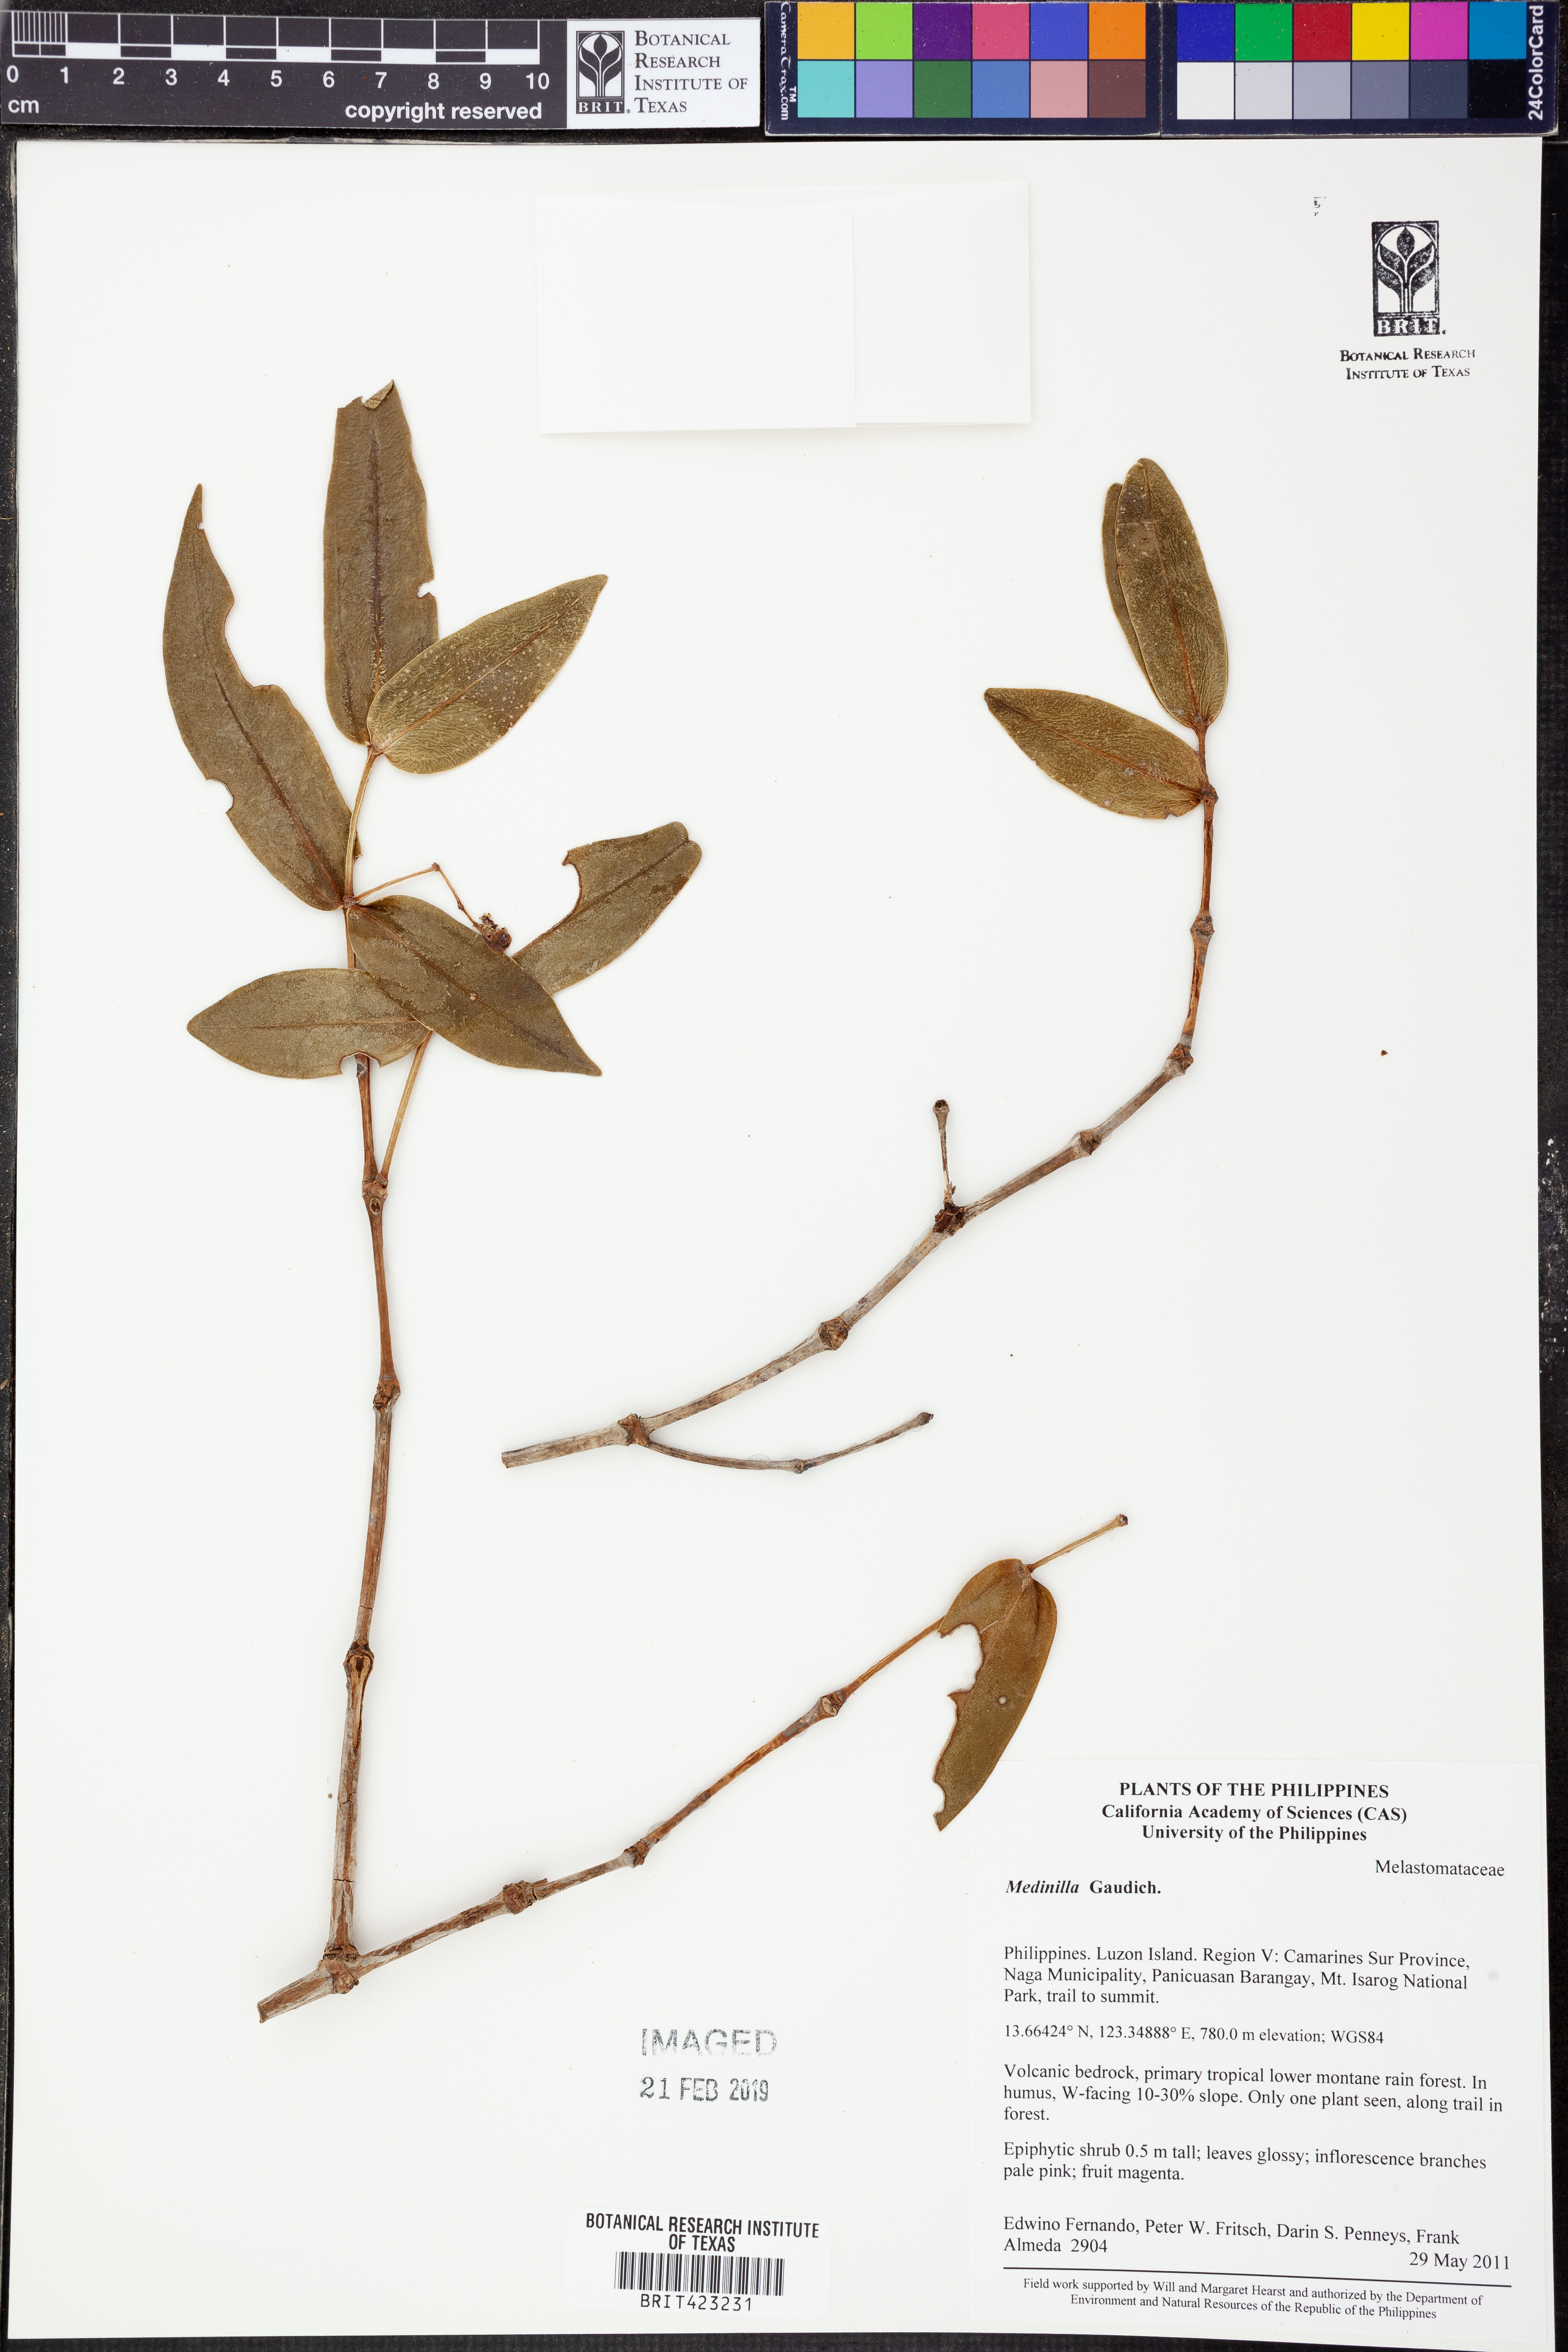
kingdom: Plantae
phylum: Tracheophyta
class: Magnoliopsida
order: Myrtales
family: Melastomataceae
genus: Medinilla
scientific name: Medinilla
